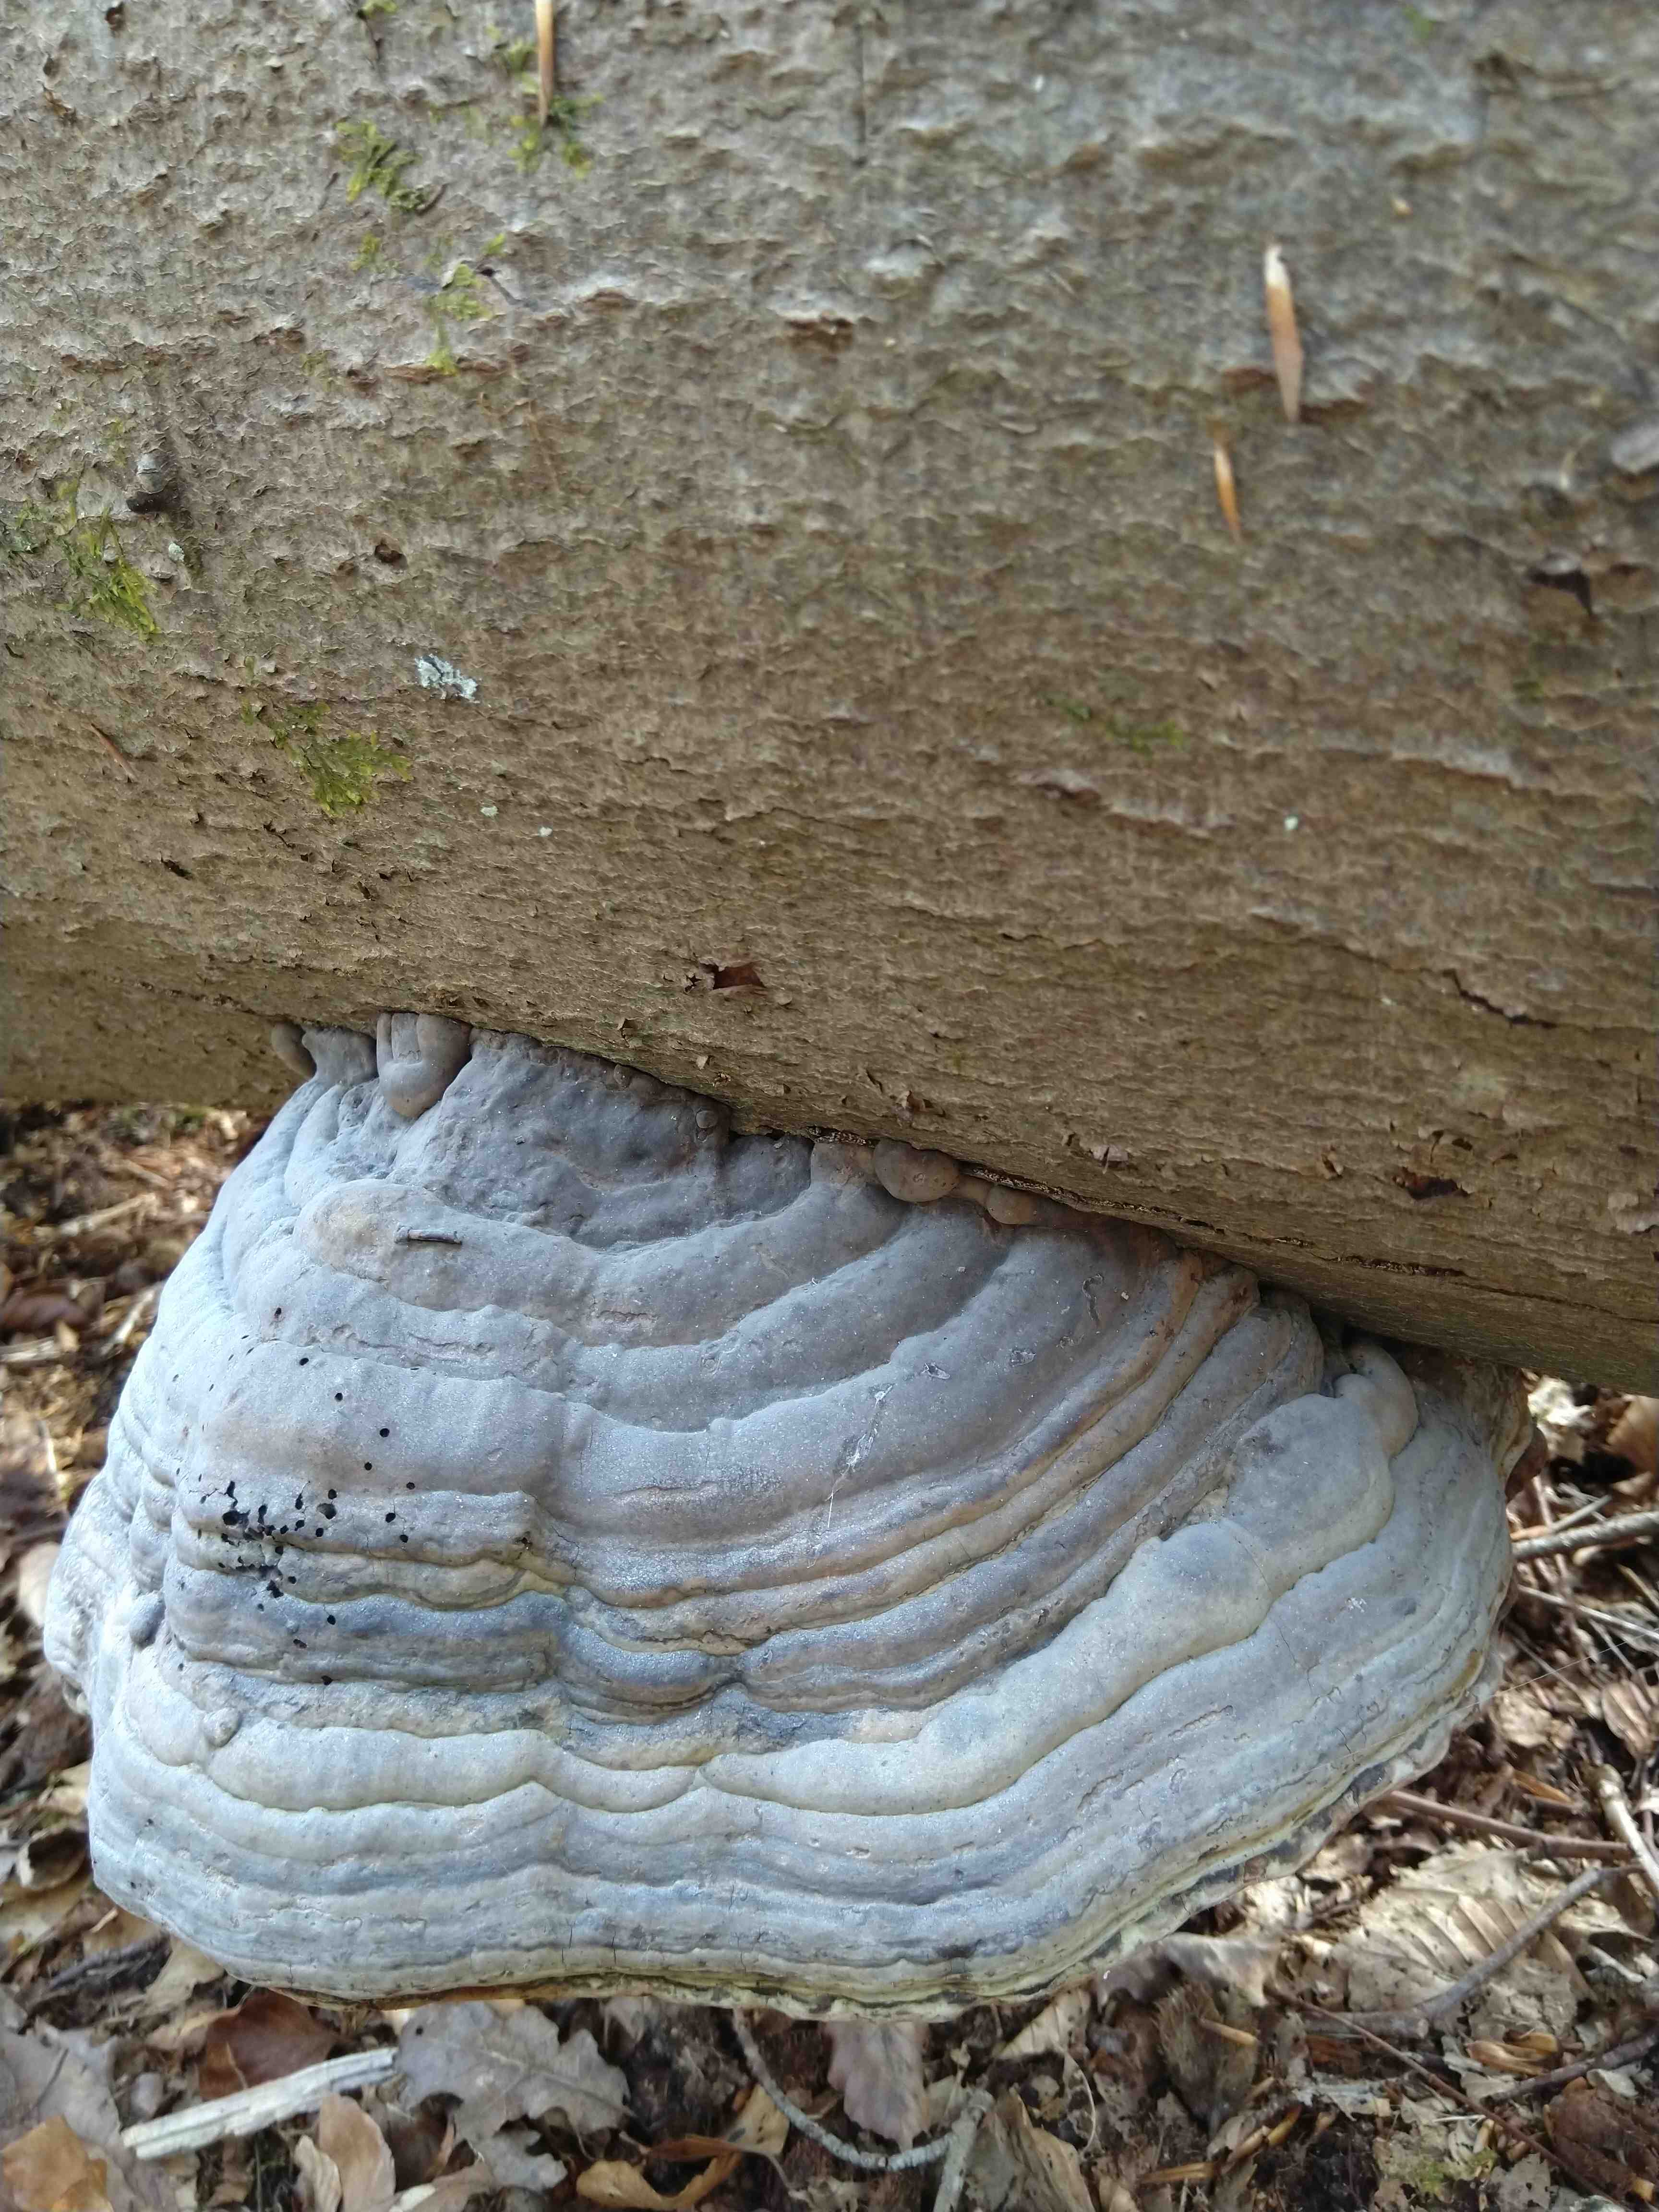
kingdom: Fungi
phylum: Basidiomycota
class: Agaricomycetes
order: Polyporales
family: Polyporaceae
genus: Fomes
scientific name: Fomes fomentarius
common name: tøndersvamp
